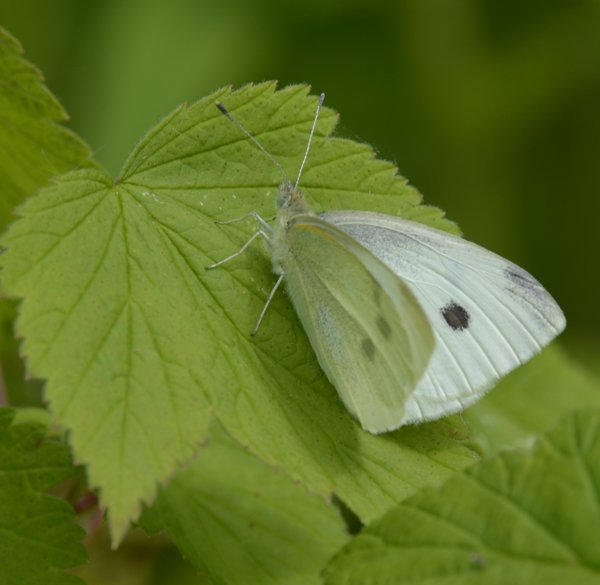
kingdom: Animalia
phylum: Arthropoda
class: Insecta
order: Lepidoptera
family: Pieridae
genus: Pieris
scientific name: Pieris rapae
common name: Cabbage White
